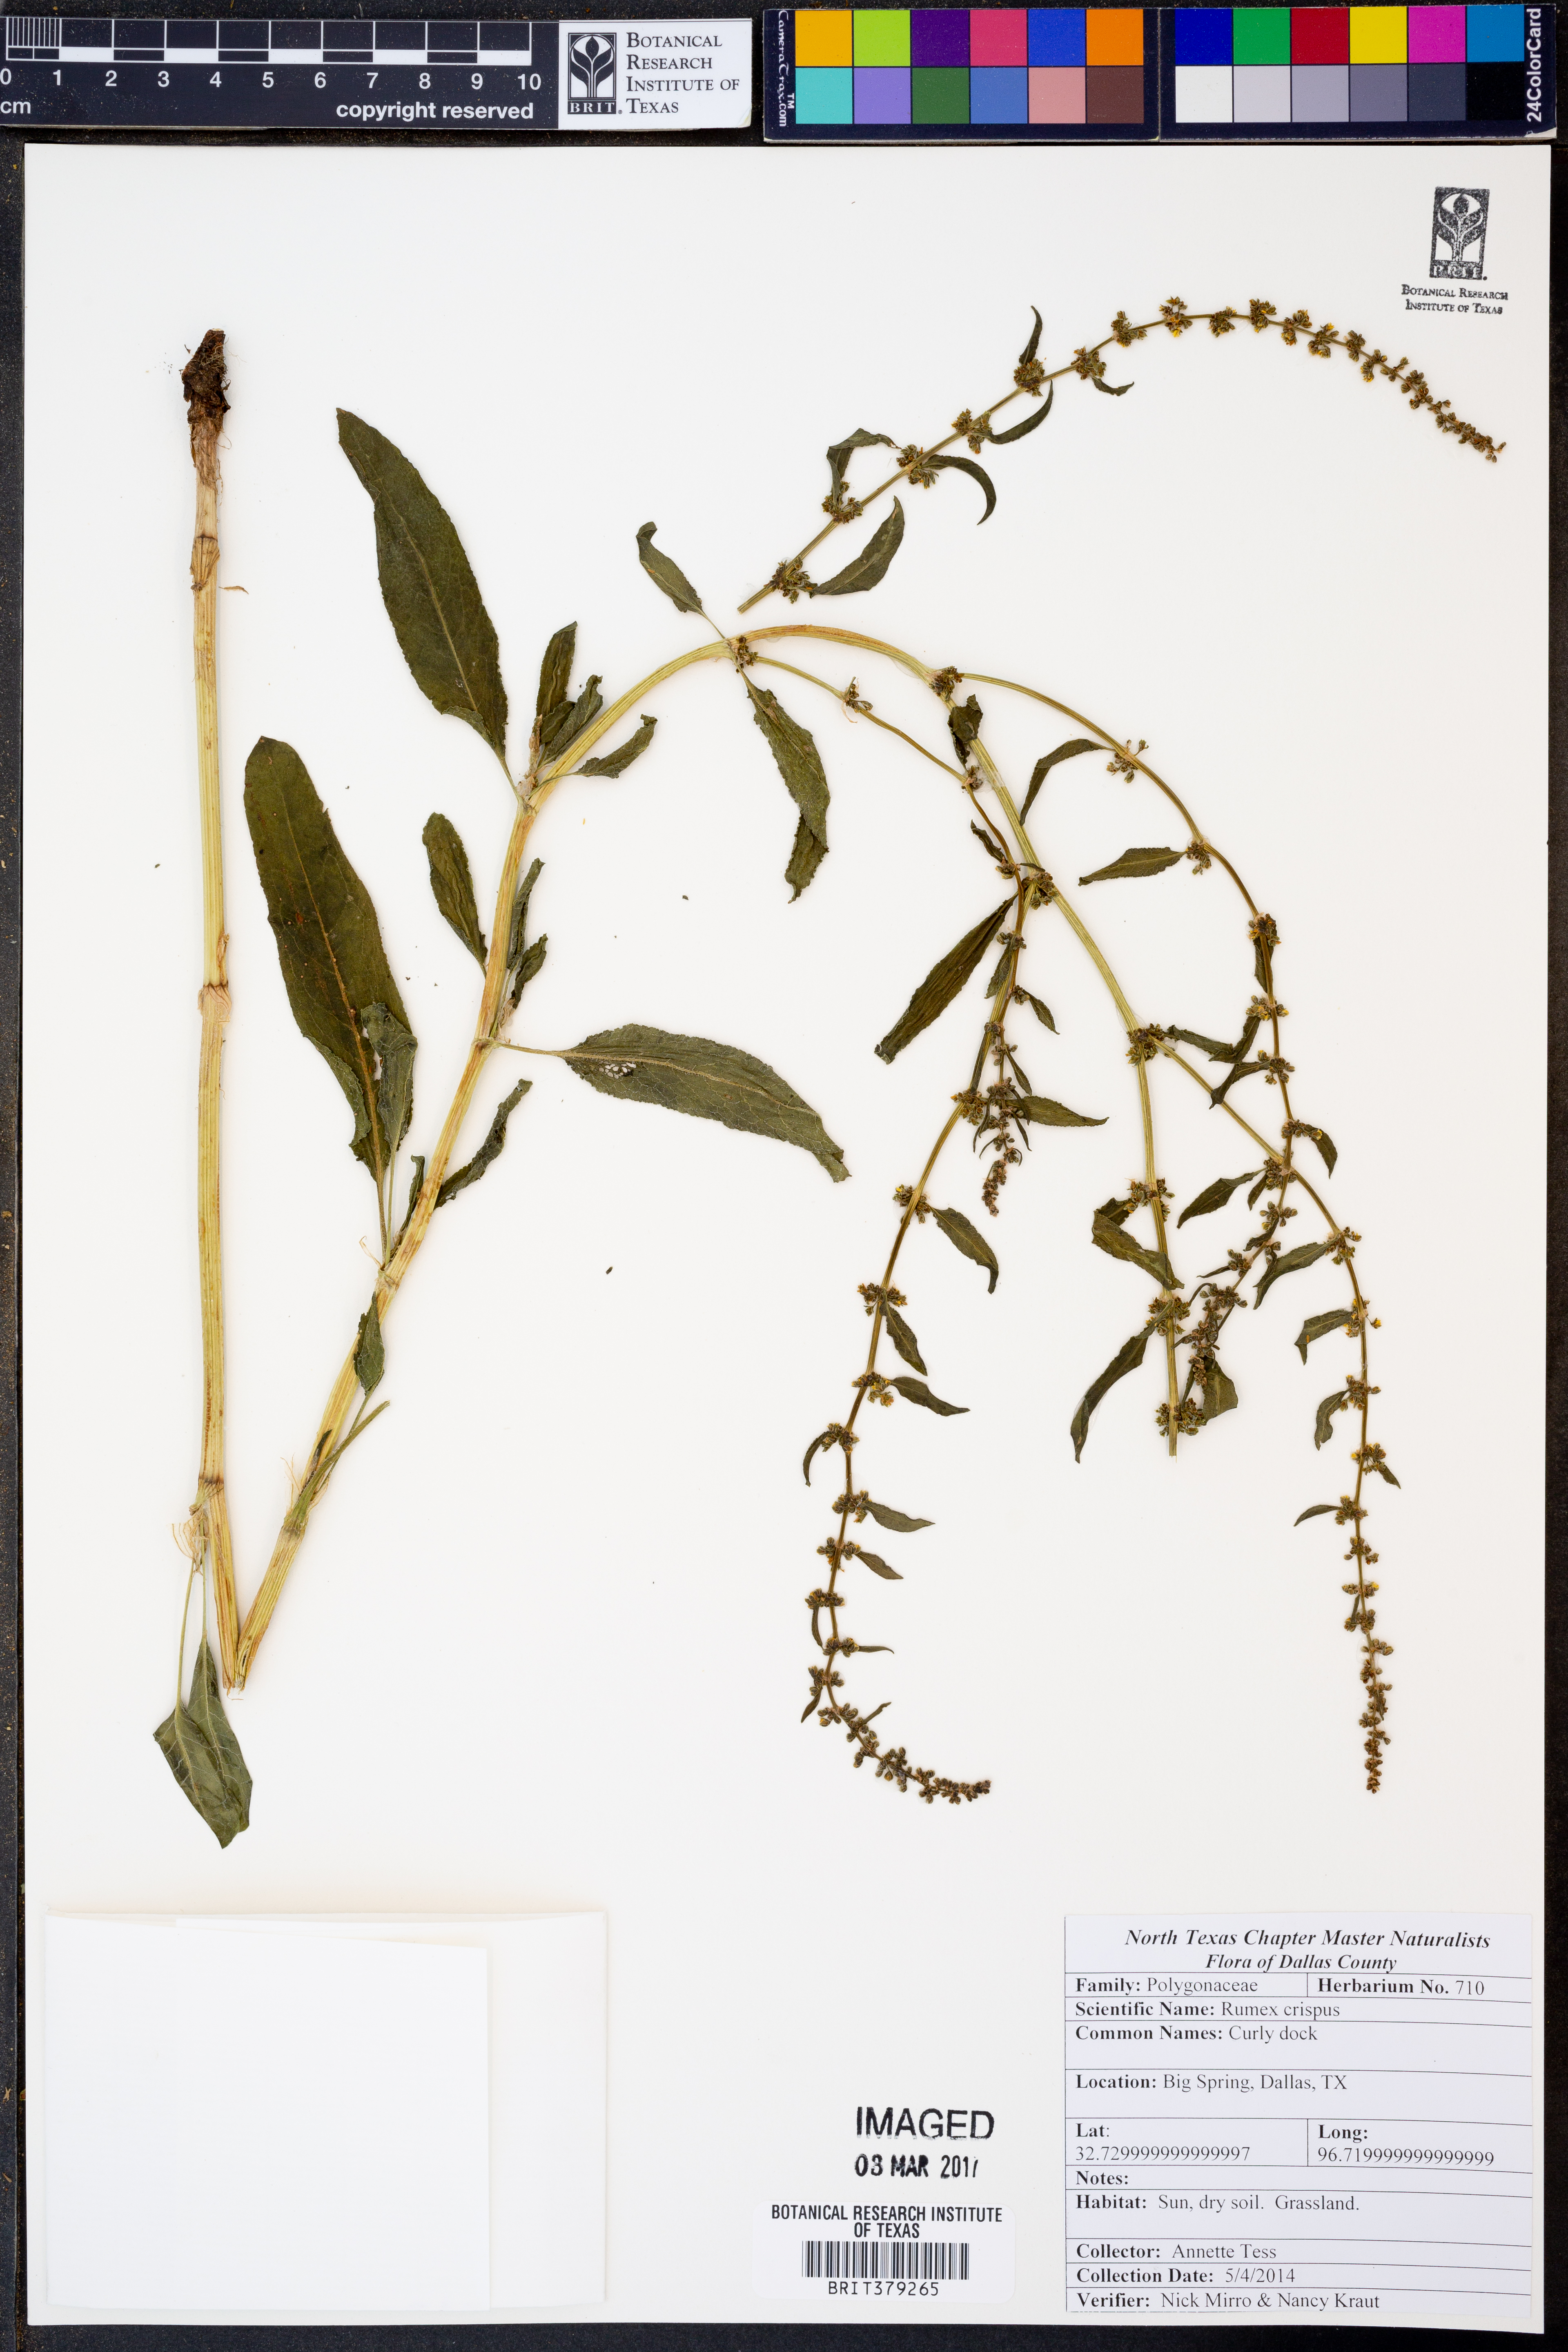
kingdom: Plantae
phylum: Tracheophyta
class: Magnoliopsida
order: Caryophyllales
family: Polygonaceae
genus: Rumex
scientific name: Rumex crispus
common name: Curled dock
